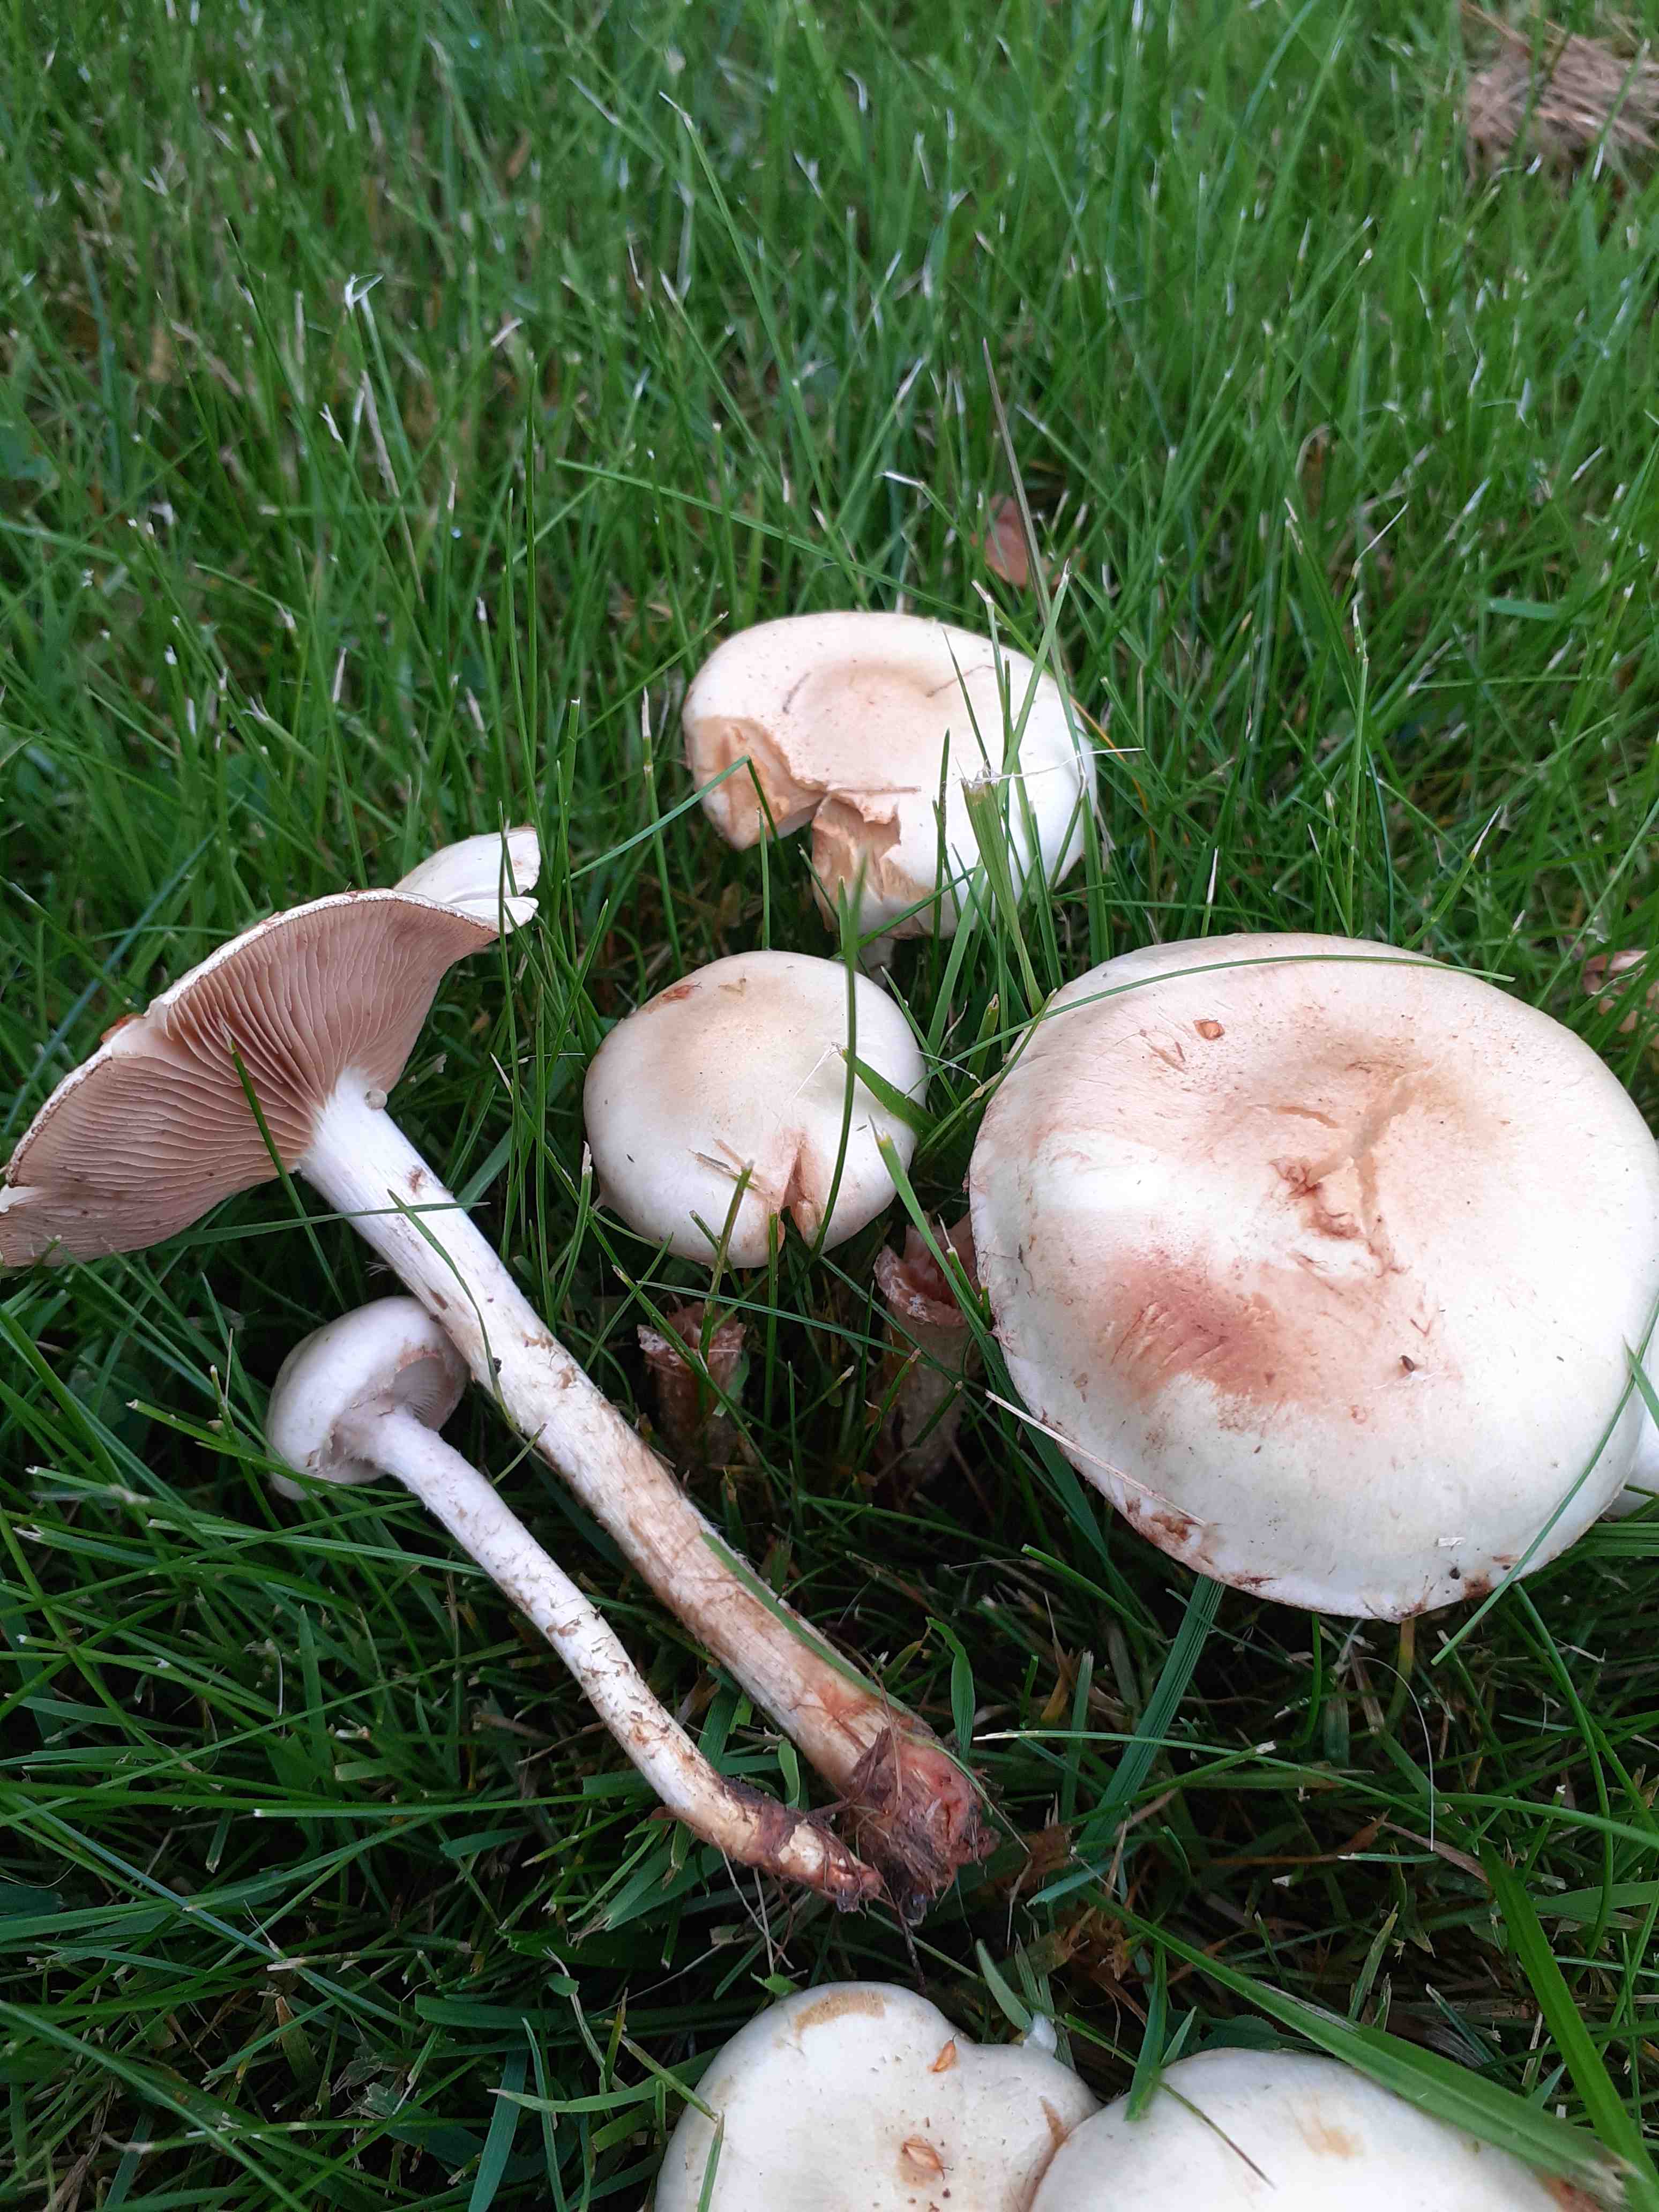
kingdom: Fungi
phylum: Basidiomycota
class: Agaricomycetes
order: Agaricales
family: Strophariaceae
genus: Pholiota
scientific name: Pholiota gummosa
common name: grøngul skælhat
